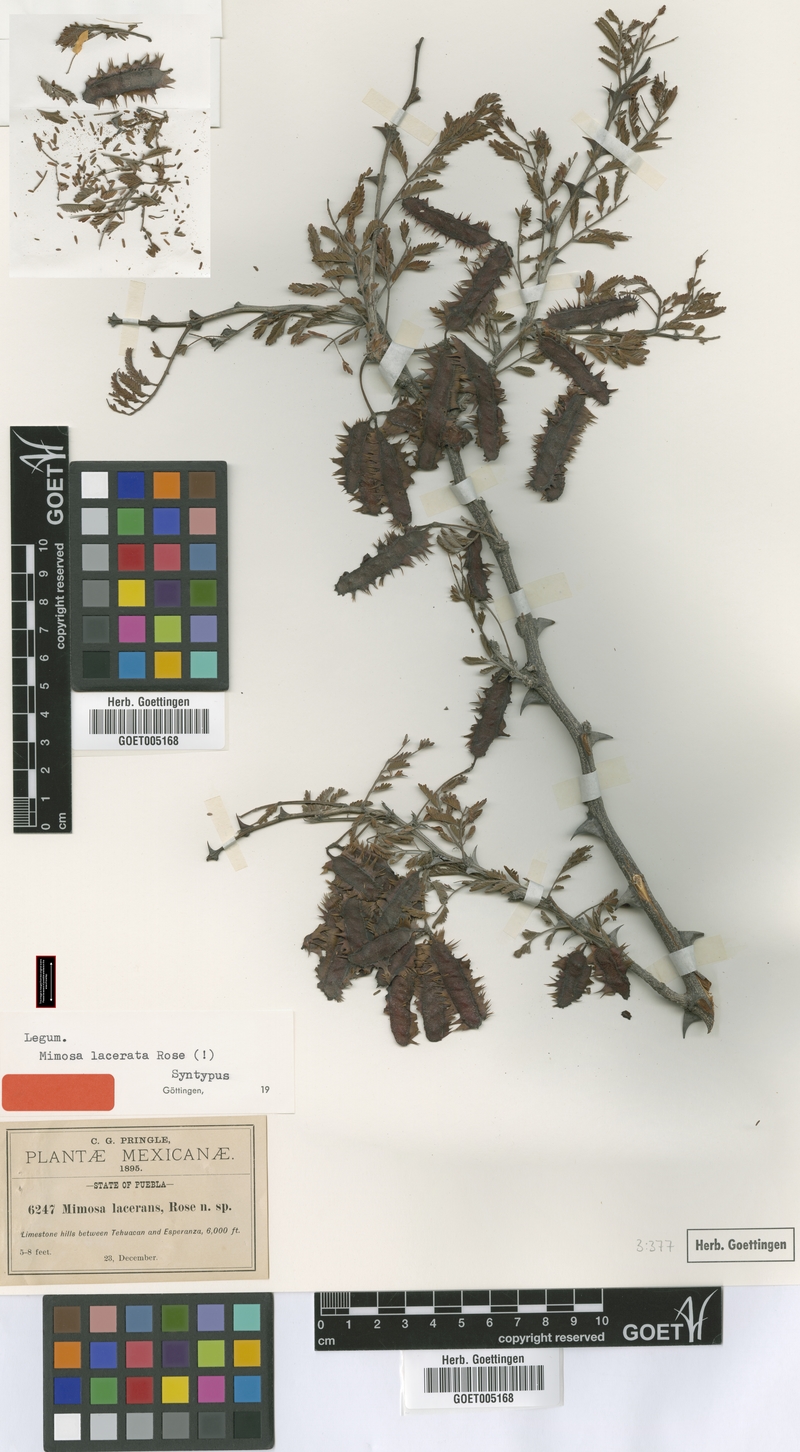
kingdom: Plantae
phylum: Tracheophyta
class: Magnoliopsida
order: Fabales
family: Fabaceae
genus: Mimosa
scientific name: Mimosa lacerata
